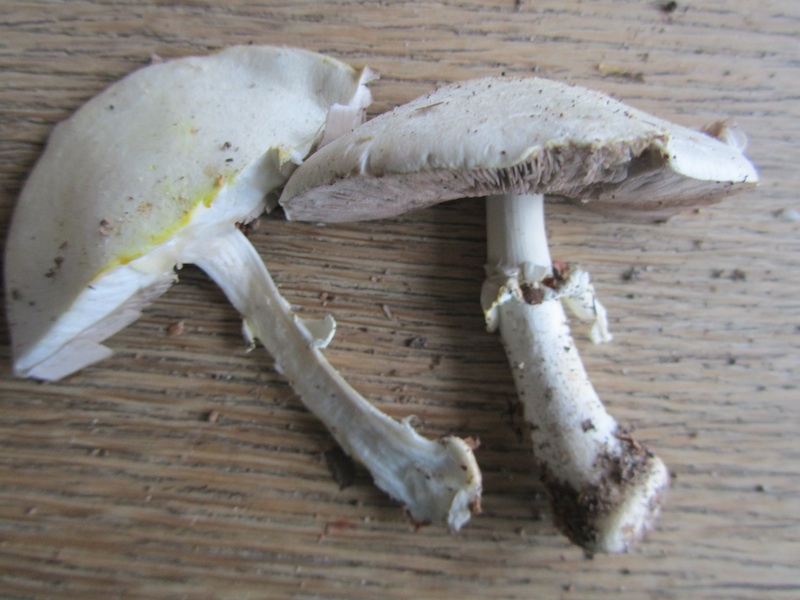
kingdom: Fungi
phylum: Basidiomycota
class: Agaricomycetes
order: Agaricales
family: Agaricaceae
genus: Agaricus
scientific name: Agaricus xanthodermus
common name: karbol-champignon
